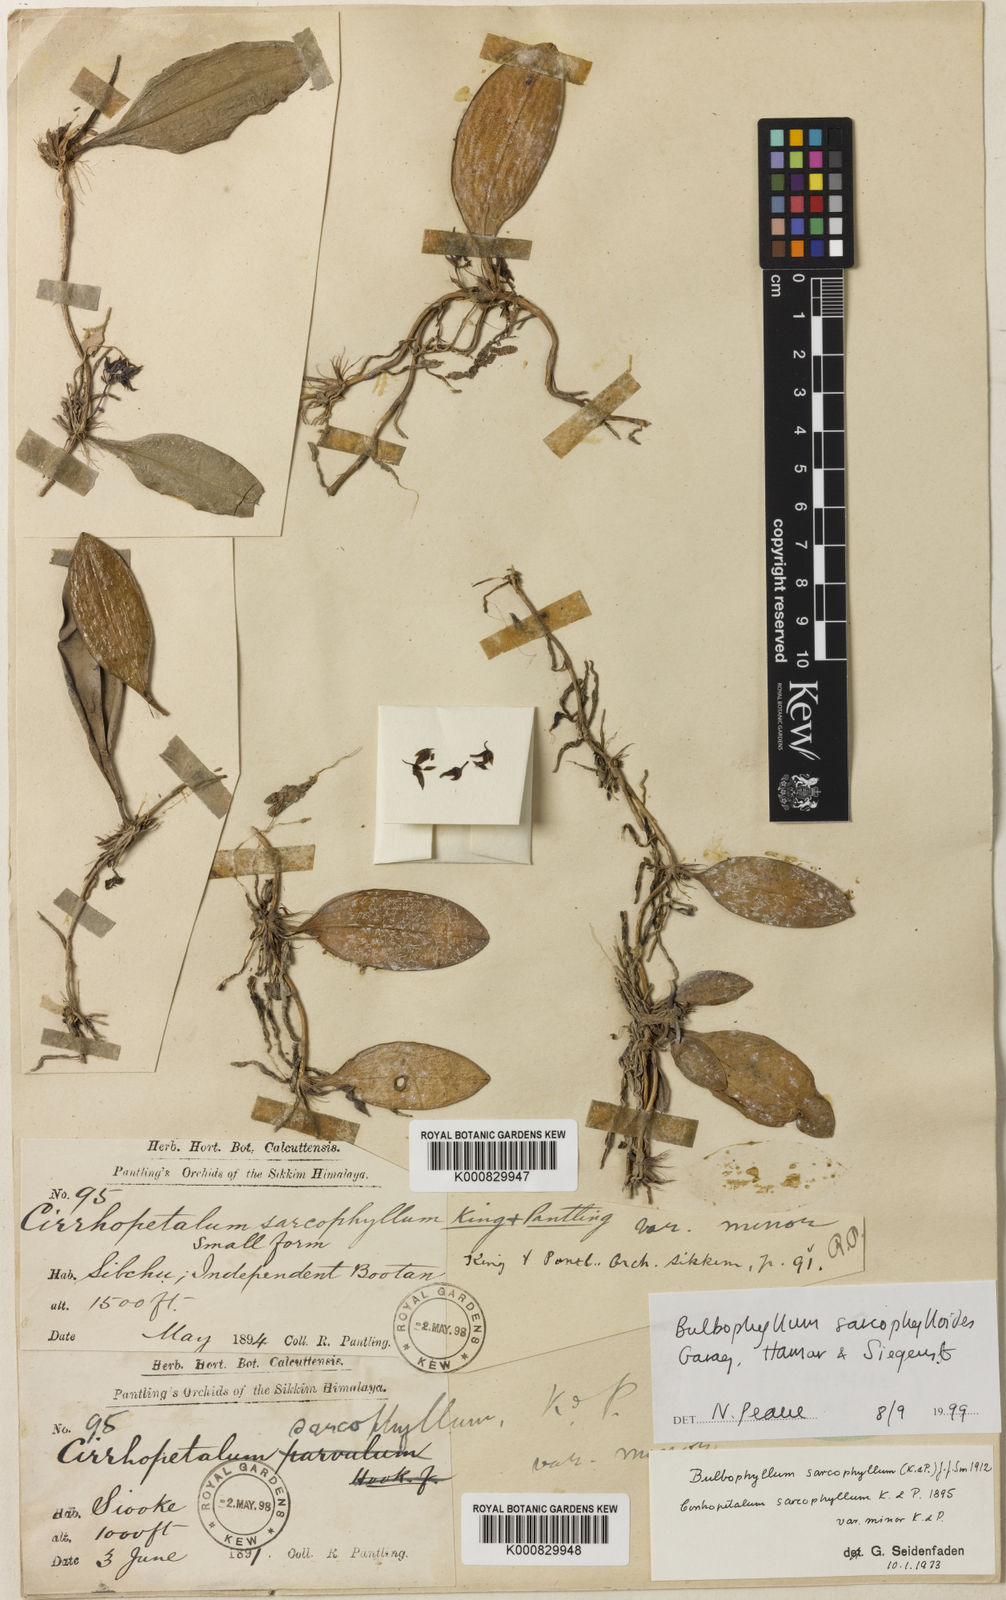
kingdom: Plantae
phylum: Tracheophyta
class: Liliopsida
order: Asparagales
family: Orchidaceae
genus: Bulbophyllum
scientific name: Bulbophyllum sarcophyllum
